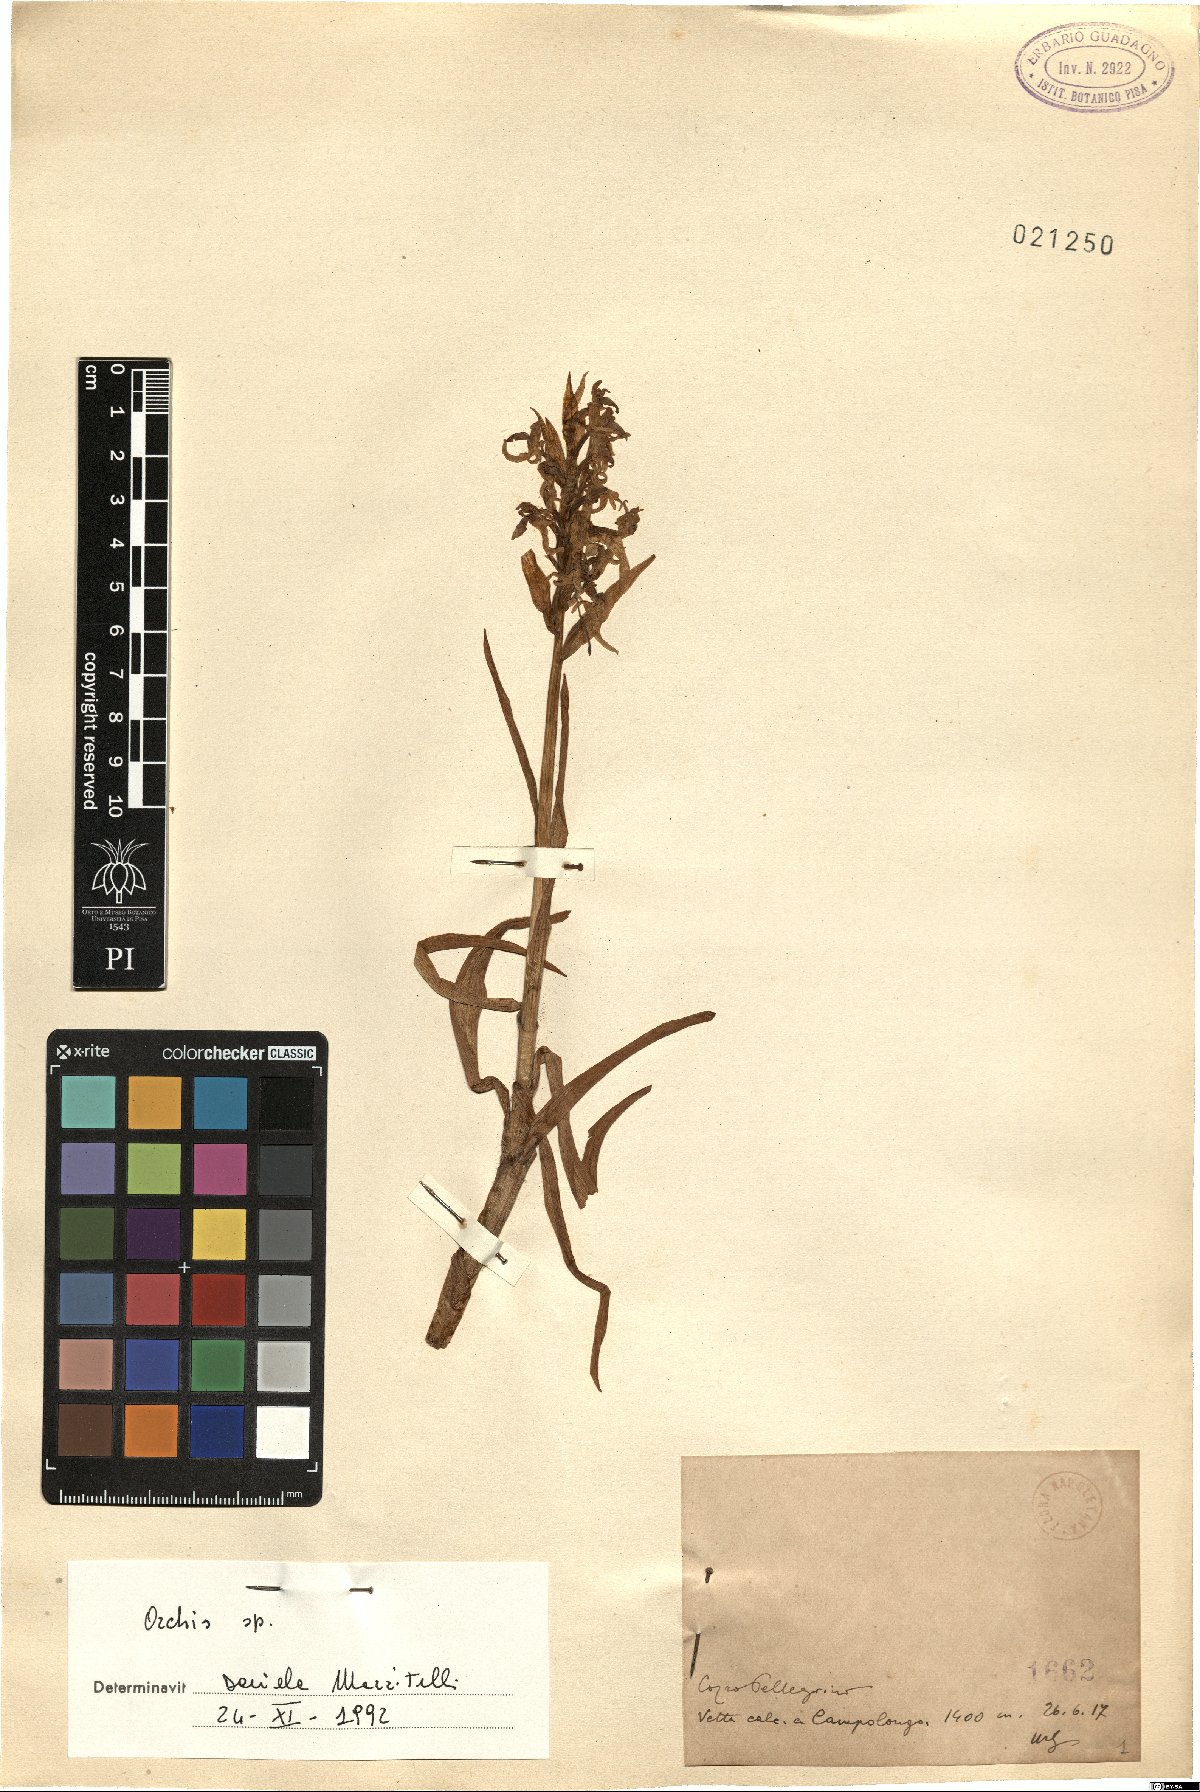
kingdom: Plantae
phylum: Tracheophyta
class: Liliopsida
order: Asparagales
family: Orchidaceae
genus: Orchis
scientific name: Orchis
